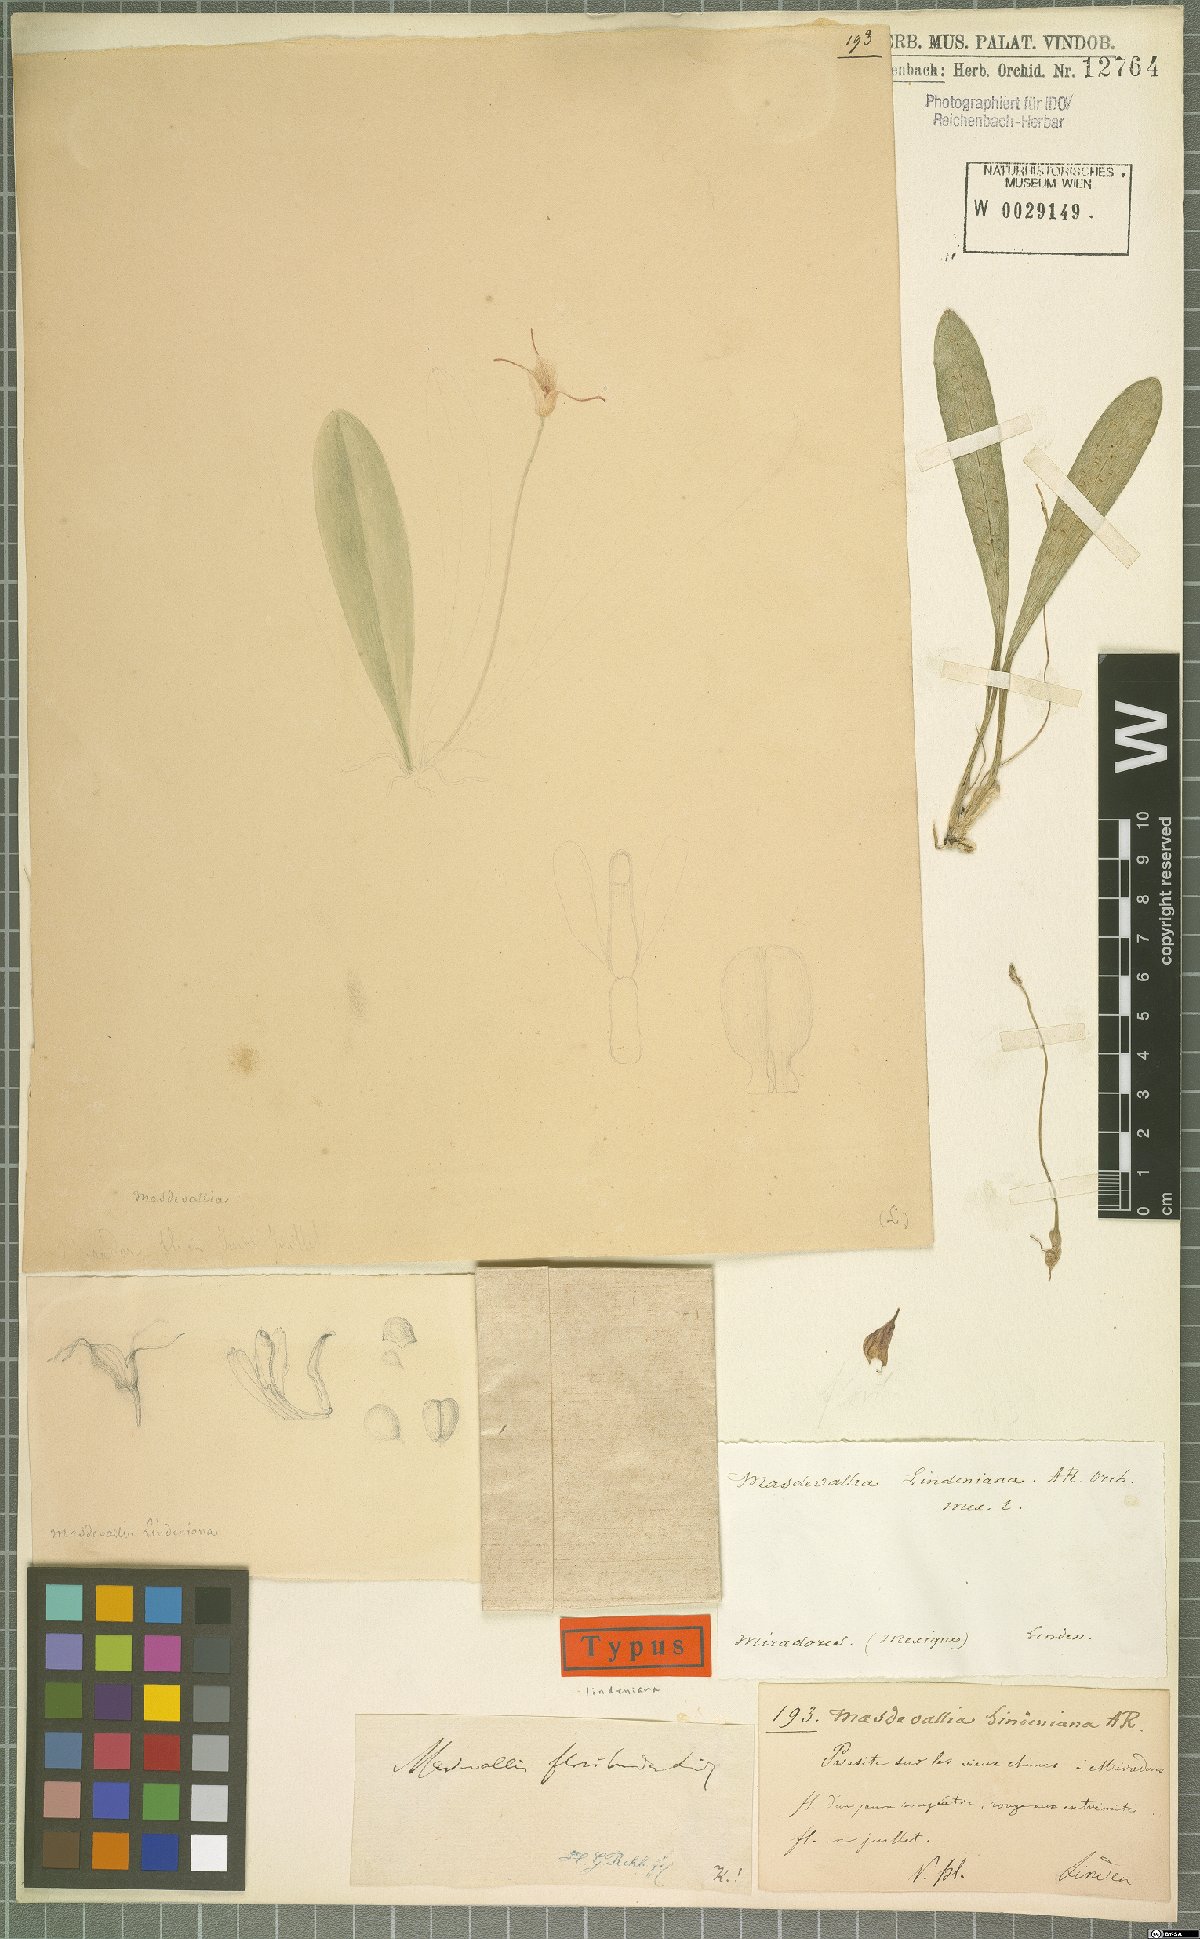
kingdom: Plantae
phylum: Tracheophyta
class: Liliopsida
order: Asparagales
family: Orchidaceae
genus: Masdevallia
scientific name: Masdevallia floribunda
